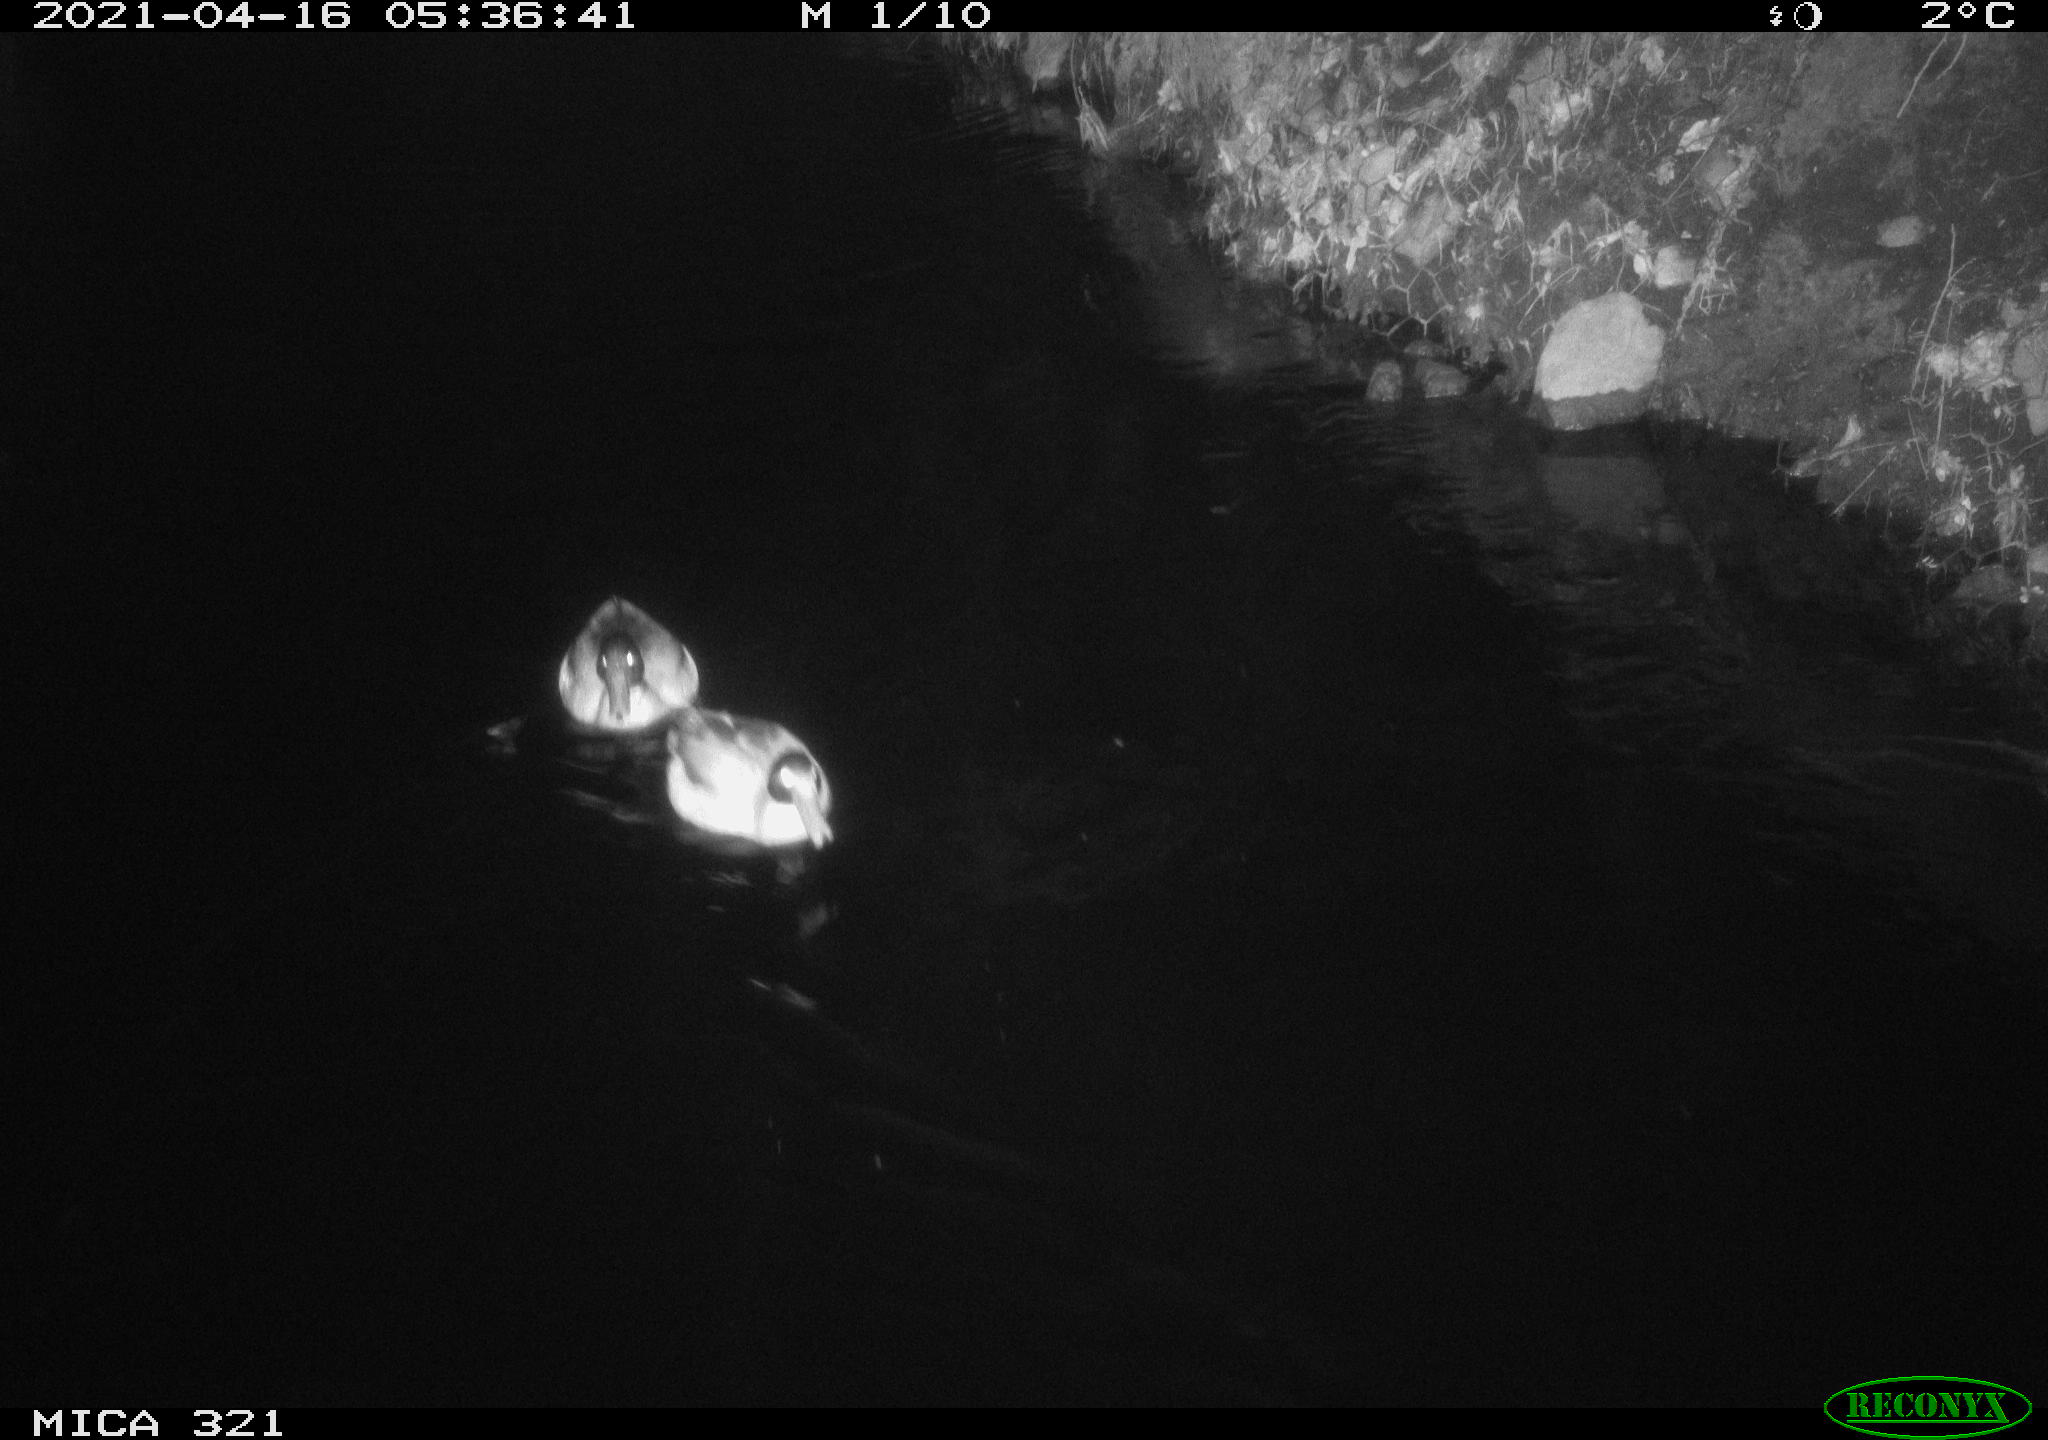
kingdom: Animalia
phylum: Chordata
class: Aves
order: Anseriformes
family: Anatidae
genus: Anas
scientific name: Anas
